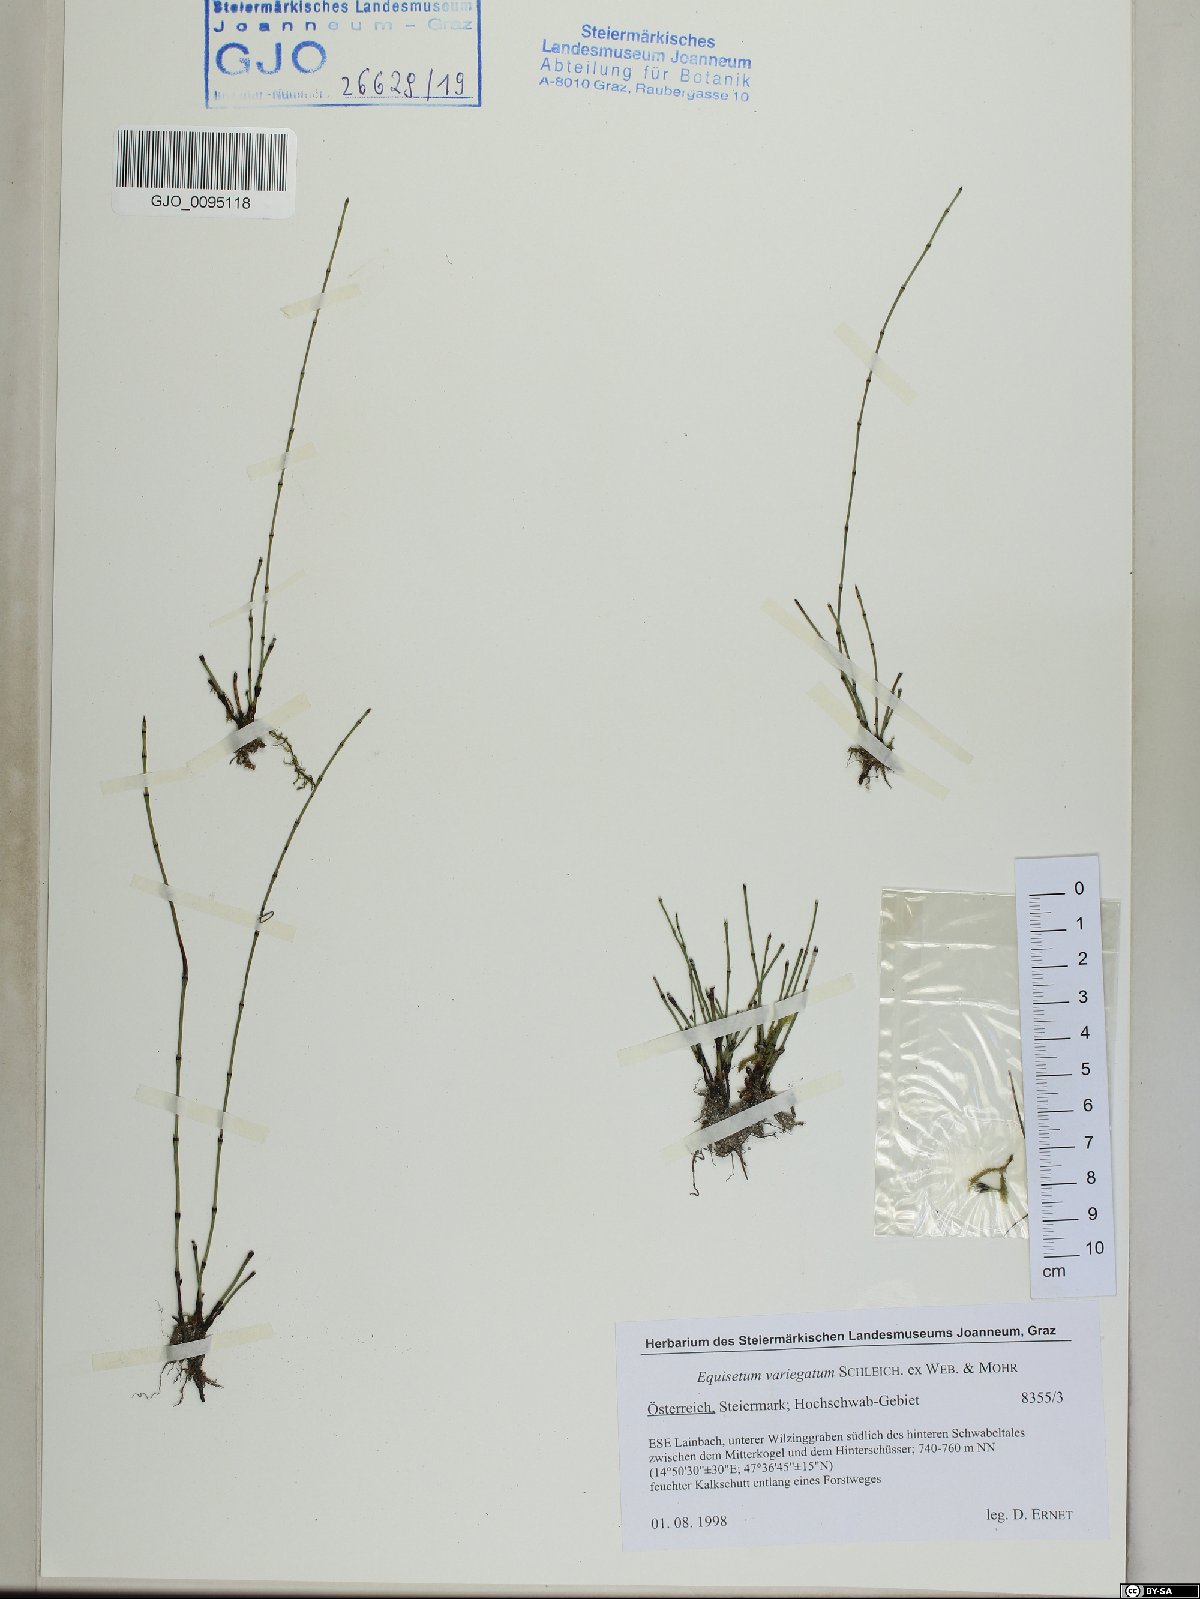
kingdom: Plantae
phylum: Tracheophyta
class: Polypodiopsida
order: Equisetales
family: Equisetaceae
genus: Equisetum
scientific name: Equisetum variegatum
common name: Variegated horsetail
